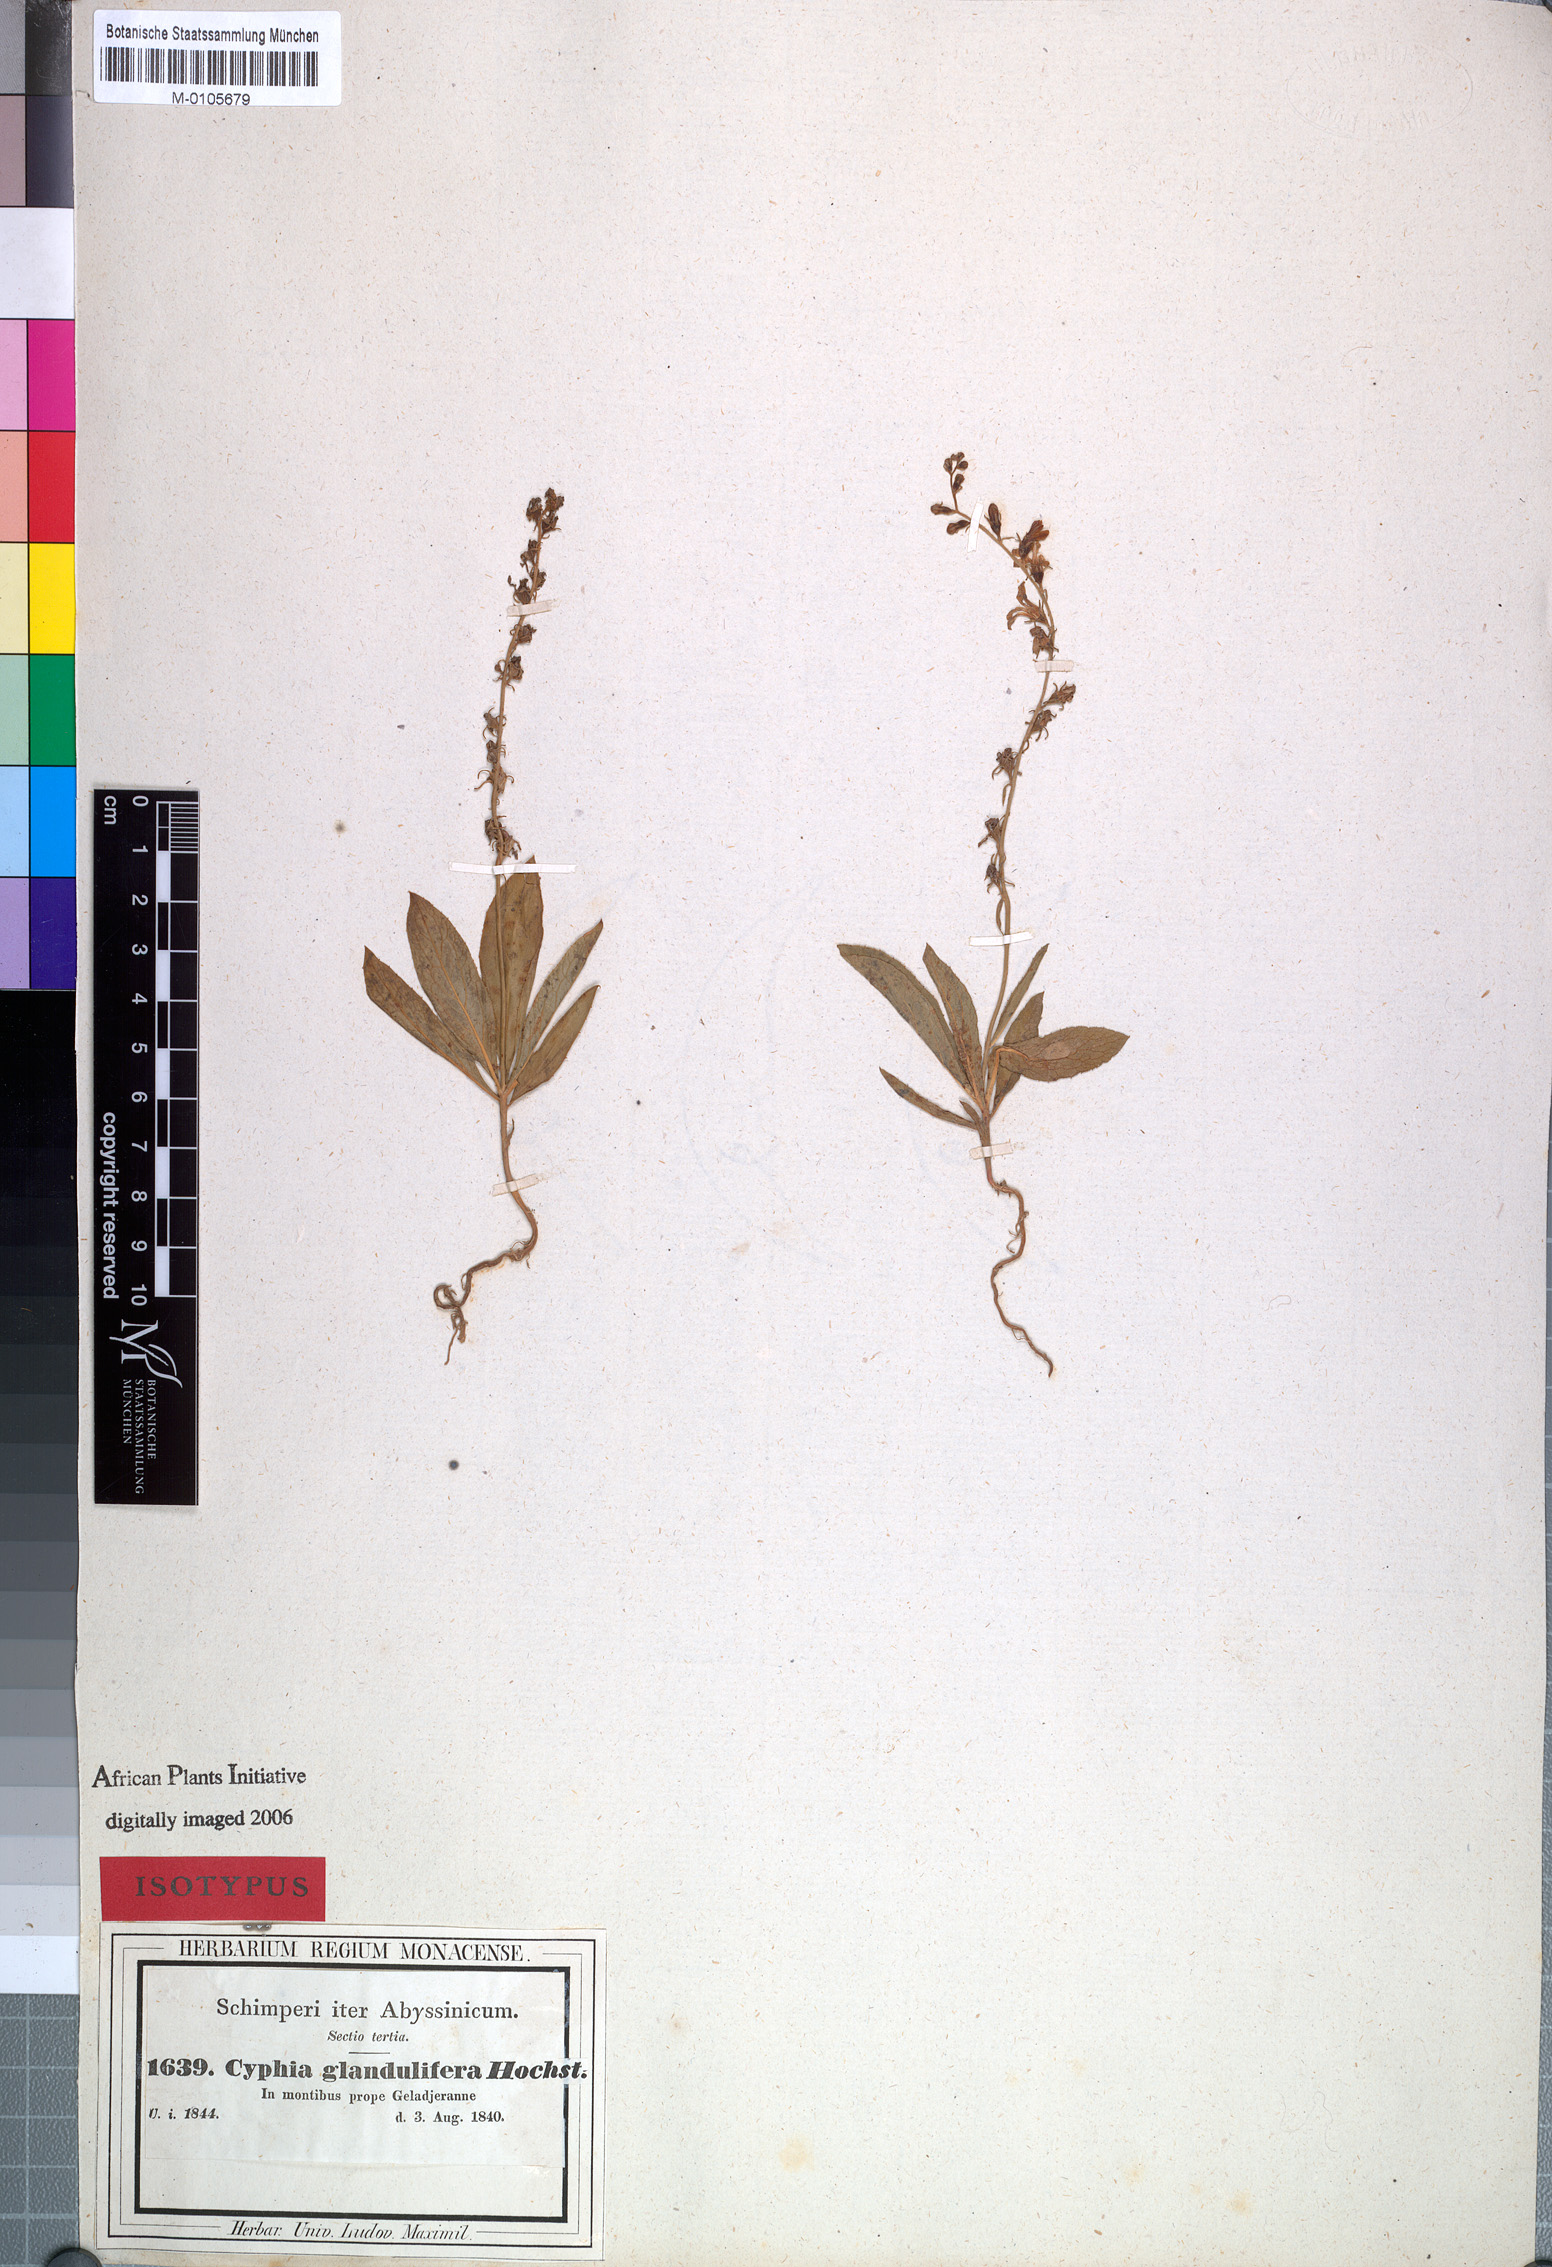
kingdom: Plantae
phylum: Tracheophyta
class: Magnoliopsida
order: Asterales
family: Campanulaceae
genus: Cyphia
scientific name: Cyphia glandulifera
